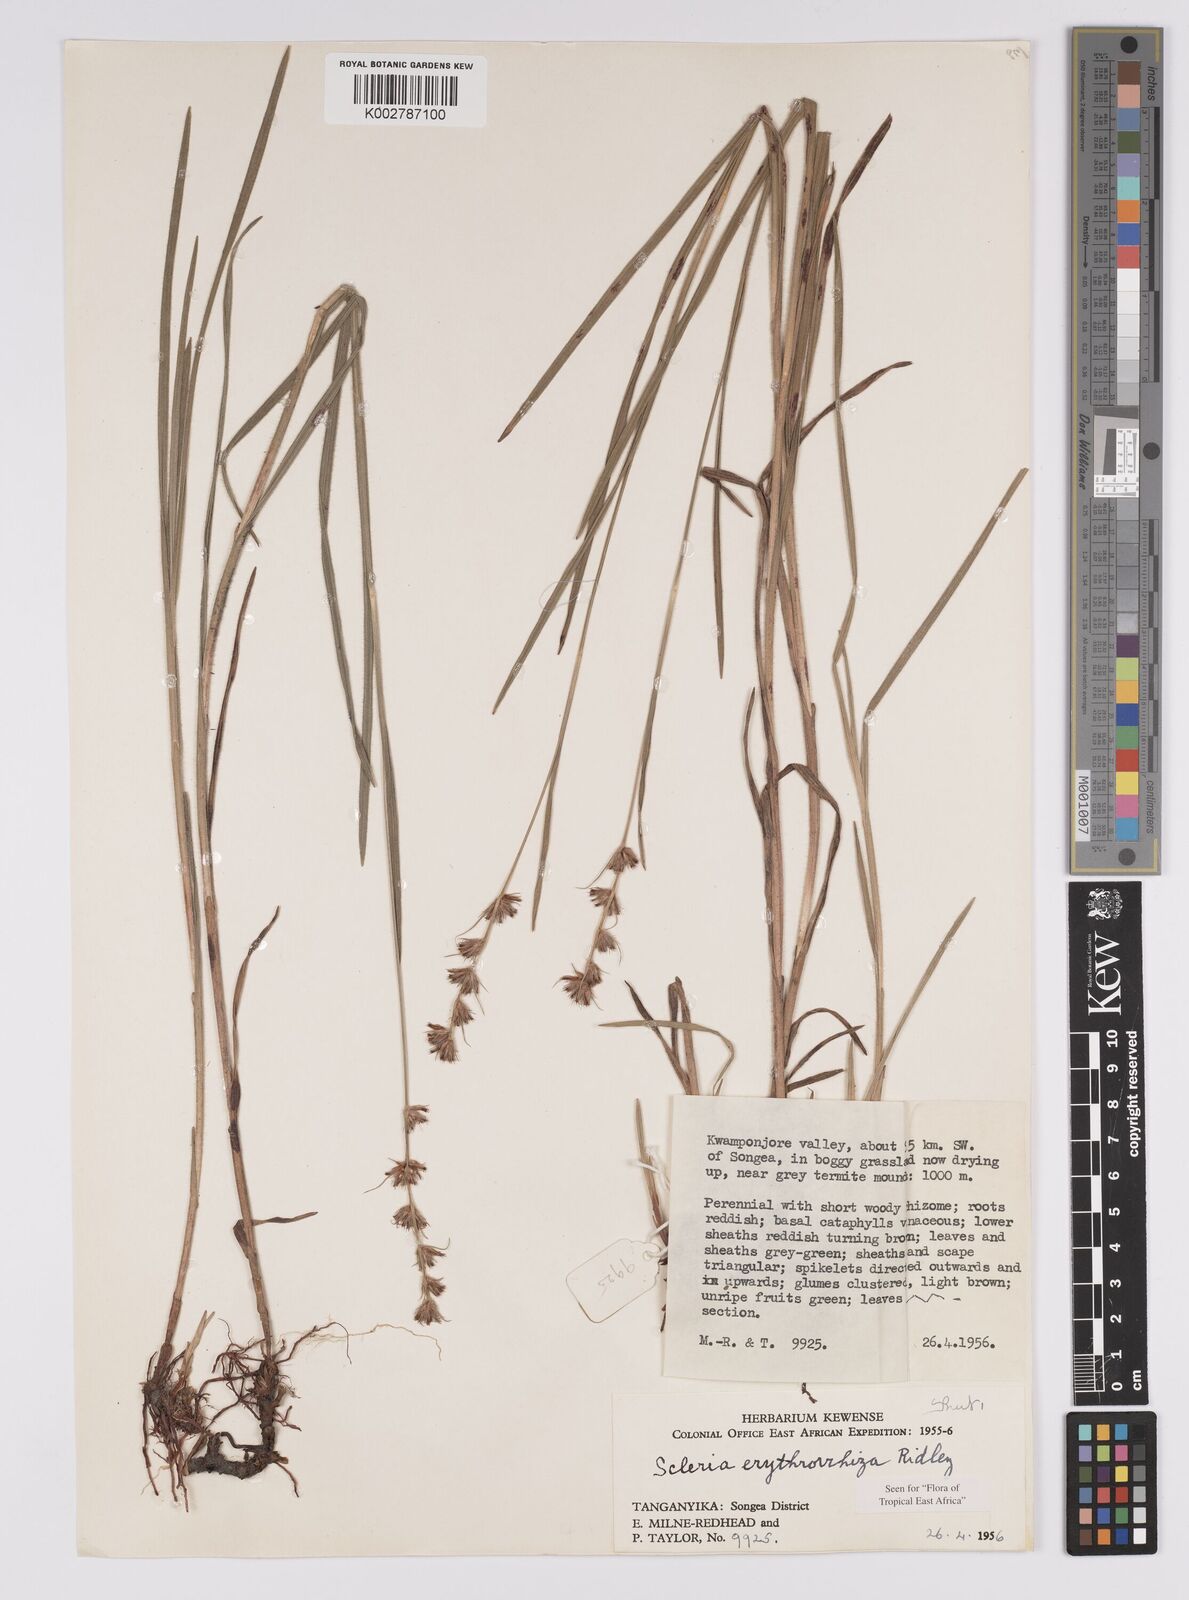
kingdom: Plantae
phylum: Tracheophyta
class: Liliopsida
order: Poales
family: Cyperaceae
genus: Scleria
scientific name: Scleria erythrorrhiza
